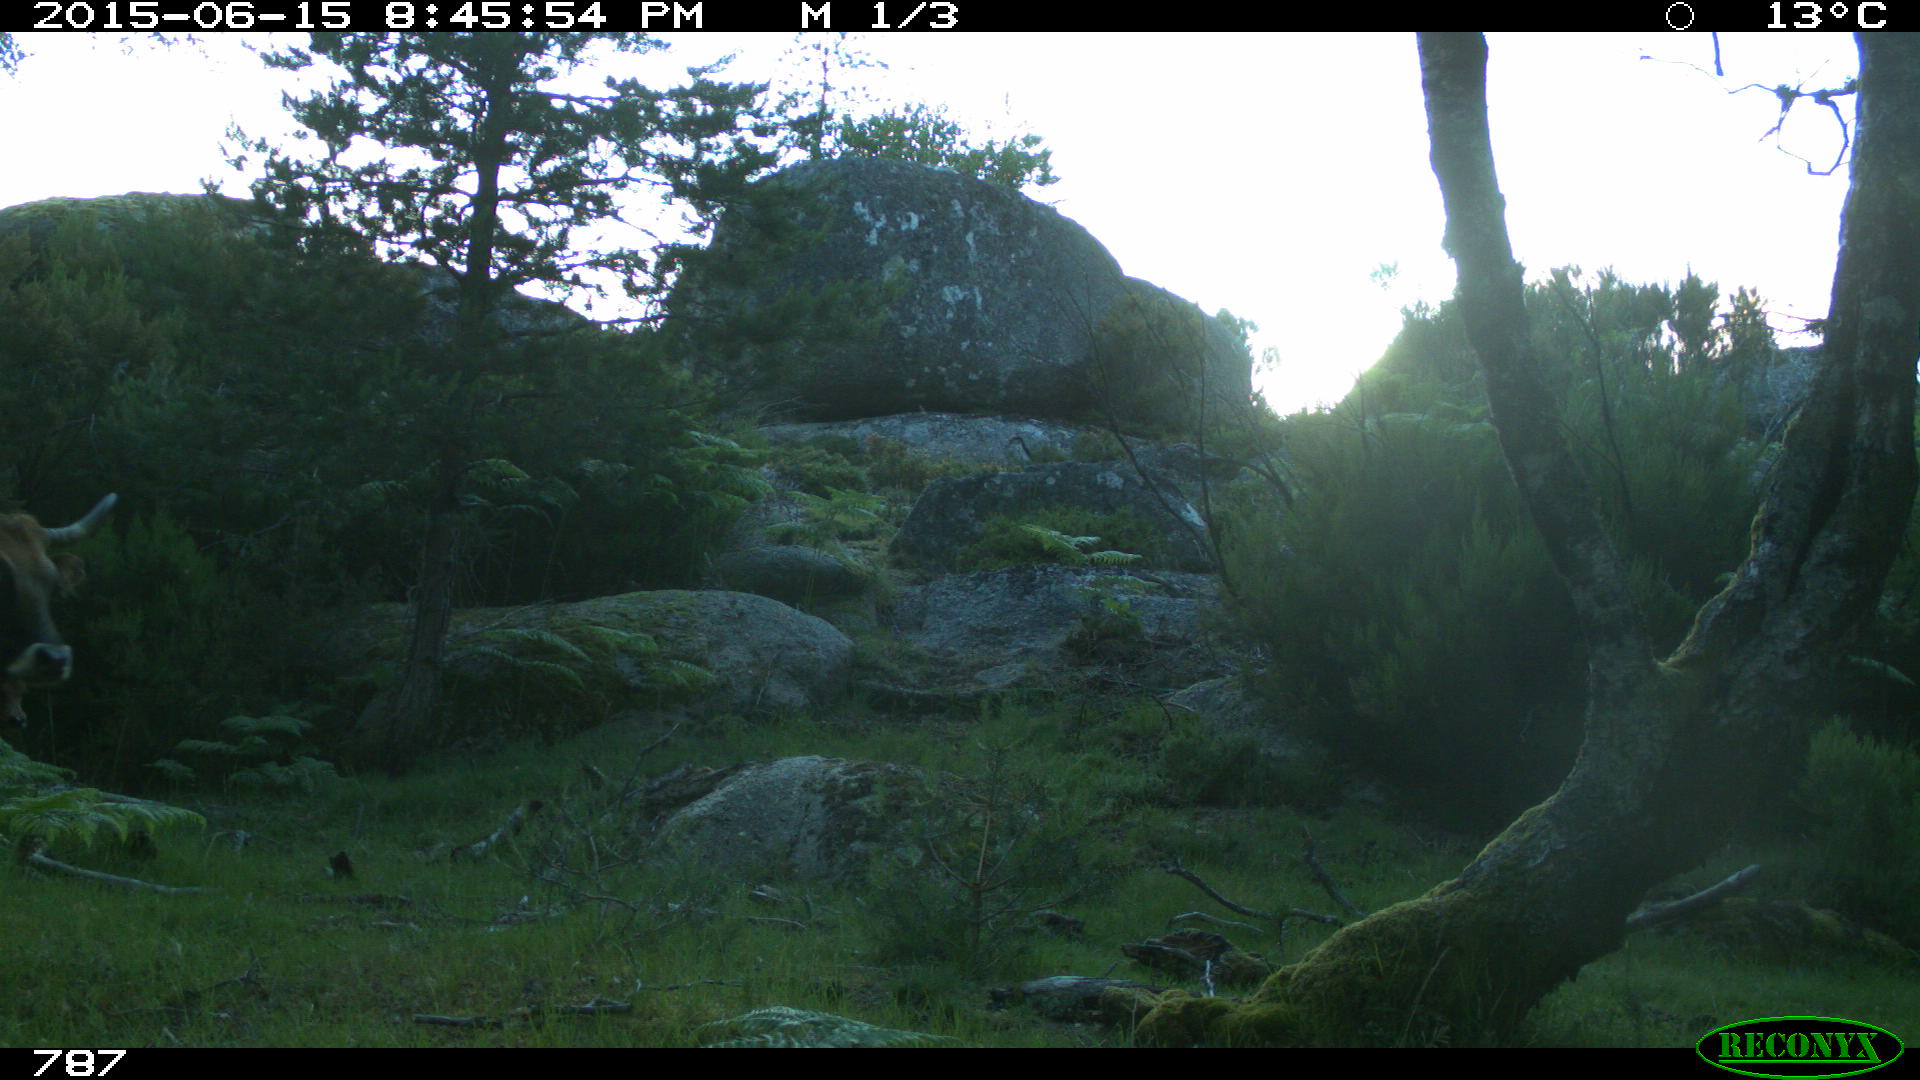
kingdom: Animalia
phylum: Chordata
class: Mammalia
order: Artiodactyla
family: Bovidae
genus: Bos
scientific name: Bos taurus
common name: Domesticated cattle
